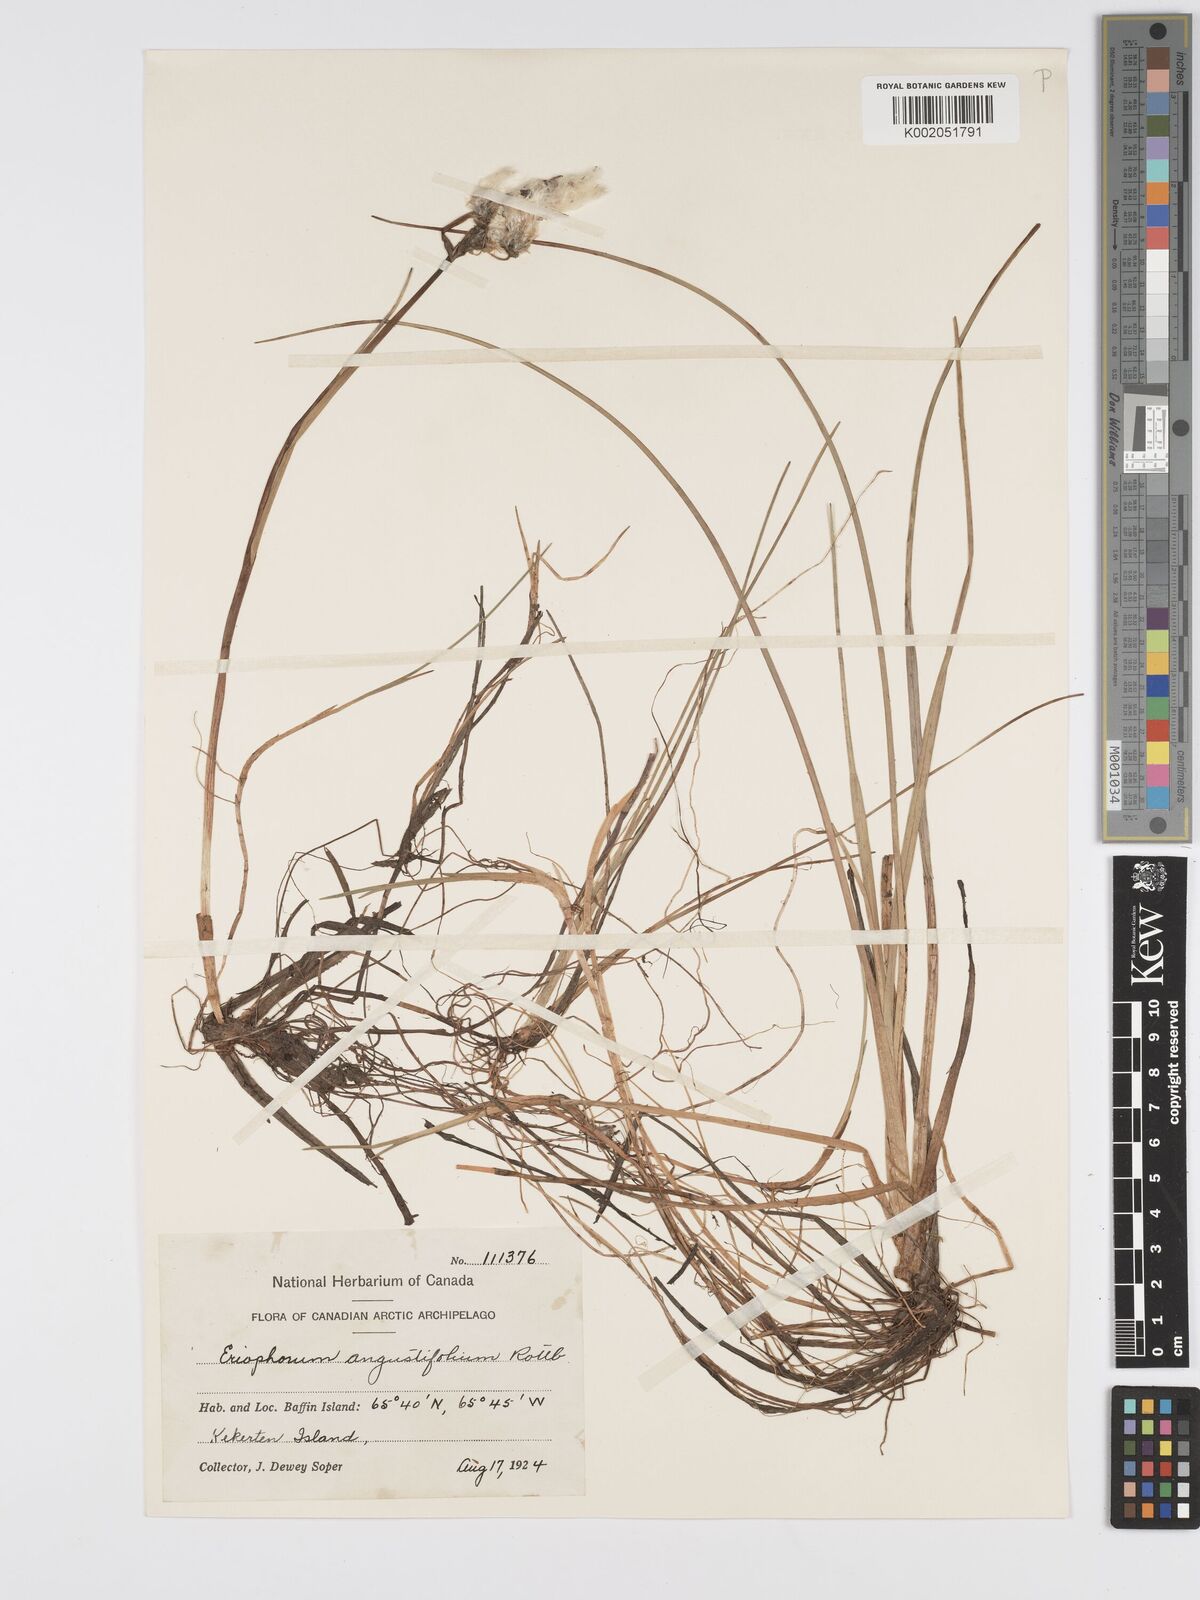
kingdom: Plantae
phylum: Tracheophyta
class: Liliopsida
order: Poales
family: Cyperaceae
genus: Eriophorum
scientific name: Eriophorum angustifolium
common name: Common cottongrass
